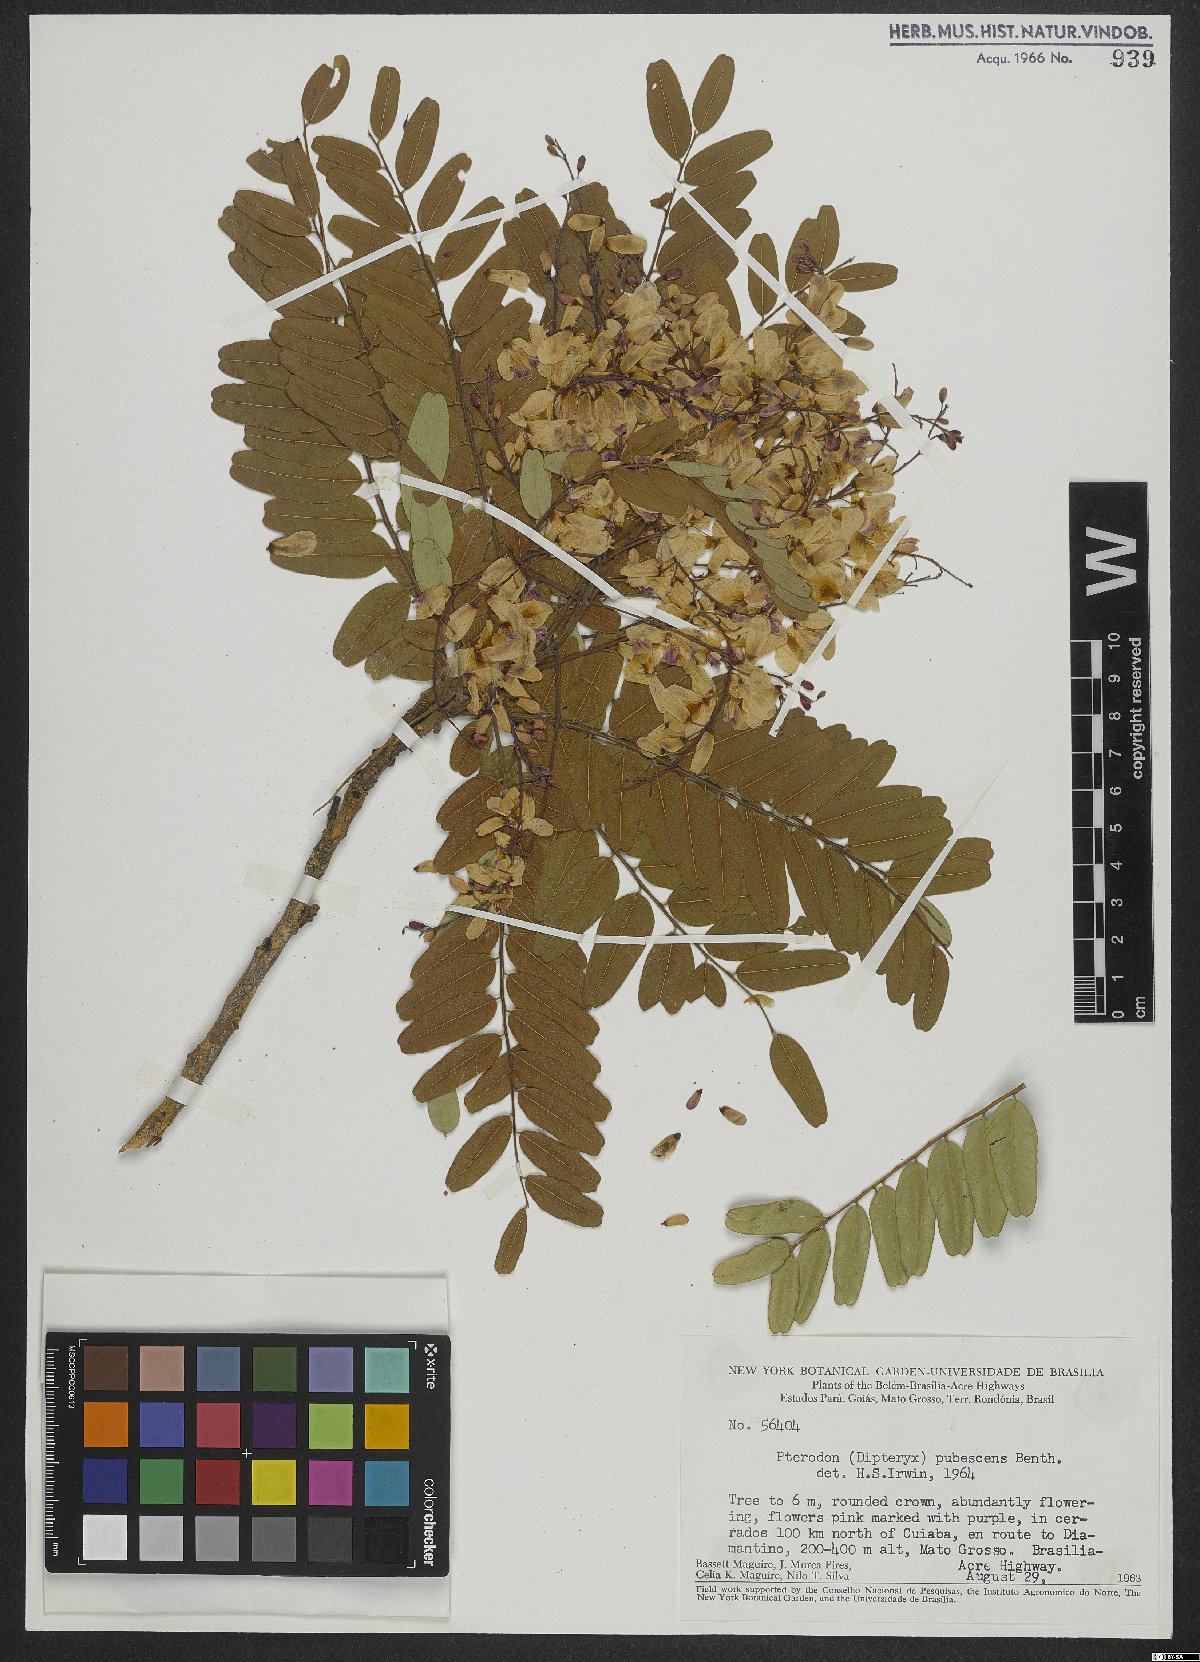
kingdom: Plantae
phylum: Tracheophyta
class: Magnoliopsida
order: Fabales
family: Fabaceae
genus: Pterodon
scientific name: Pterodon
